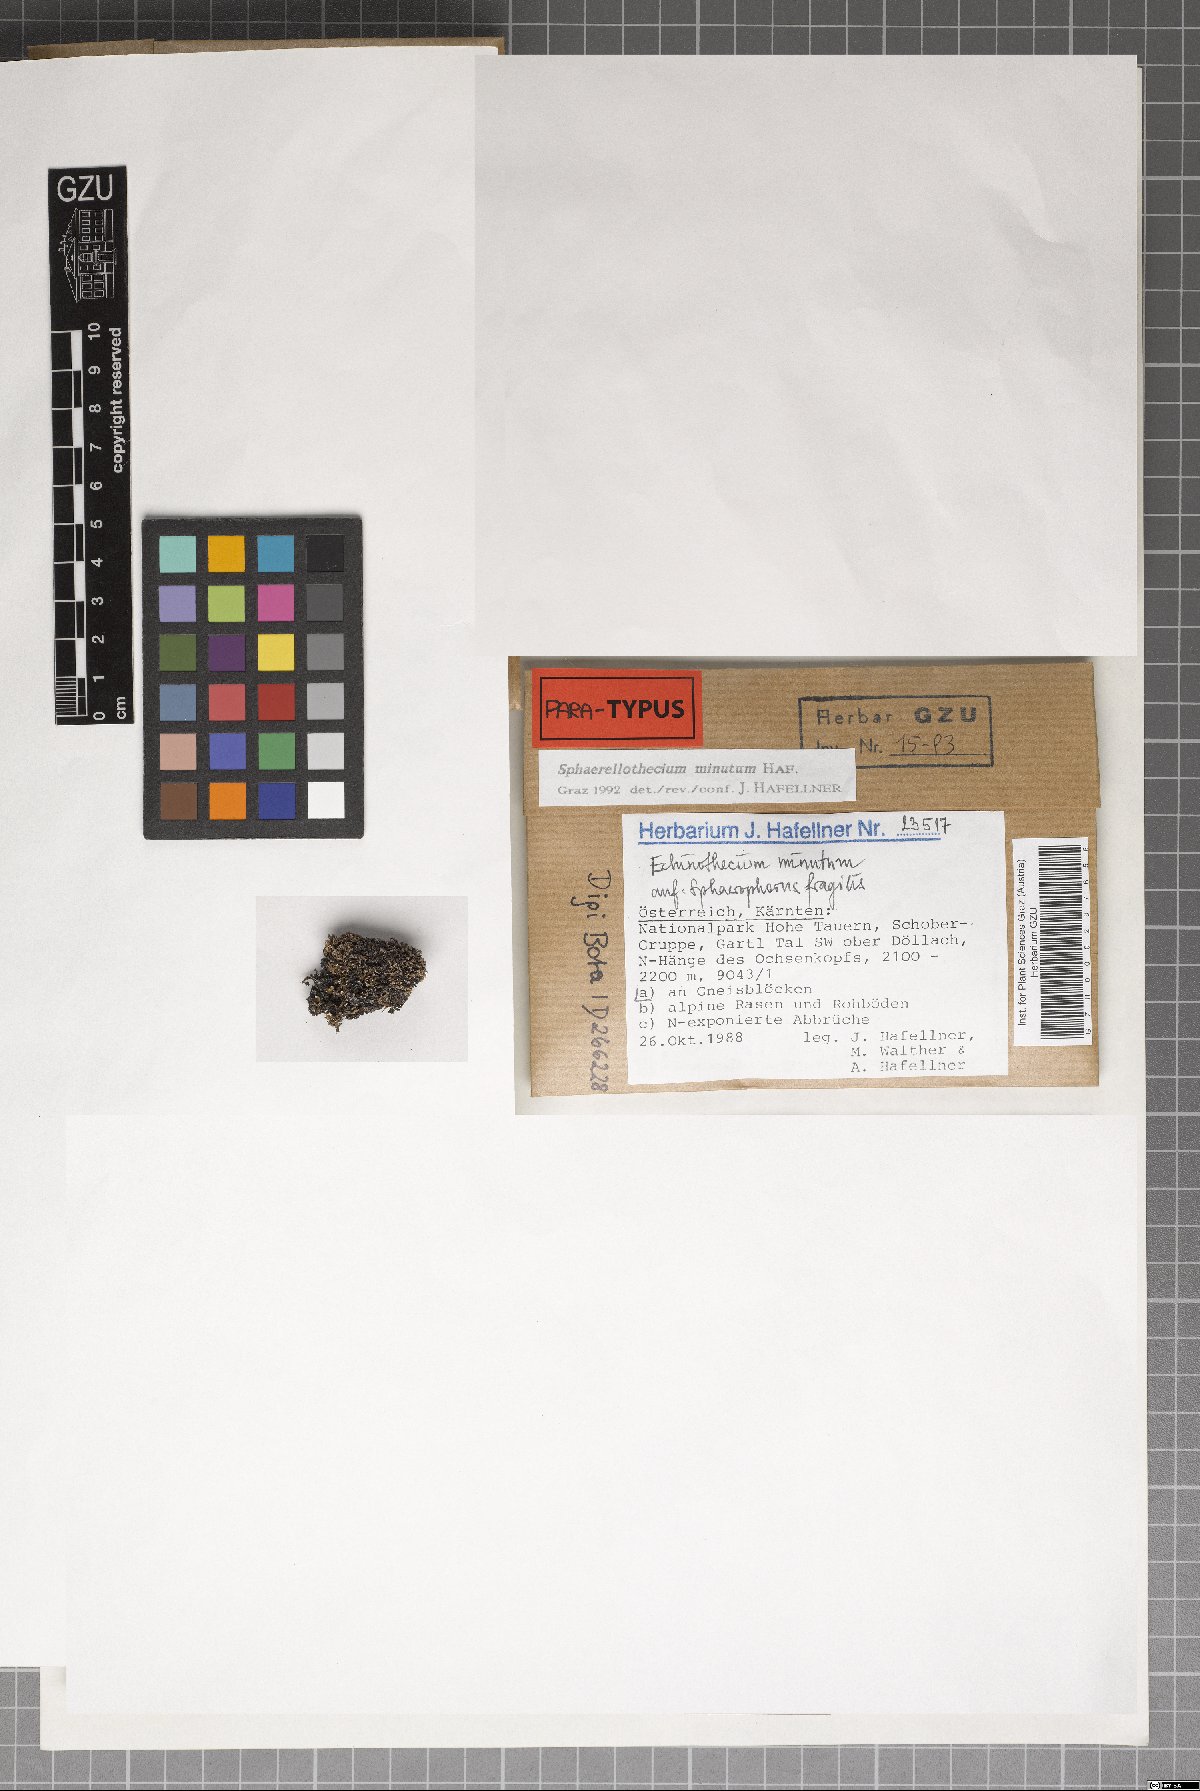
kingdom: Fungi
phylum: Ascomycota
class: Dothideomycetes
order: Mycosphaerellales
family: Mycosphaerellaceae
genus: Sphaerellothecium
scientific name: Sphaerellothecium minutum
